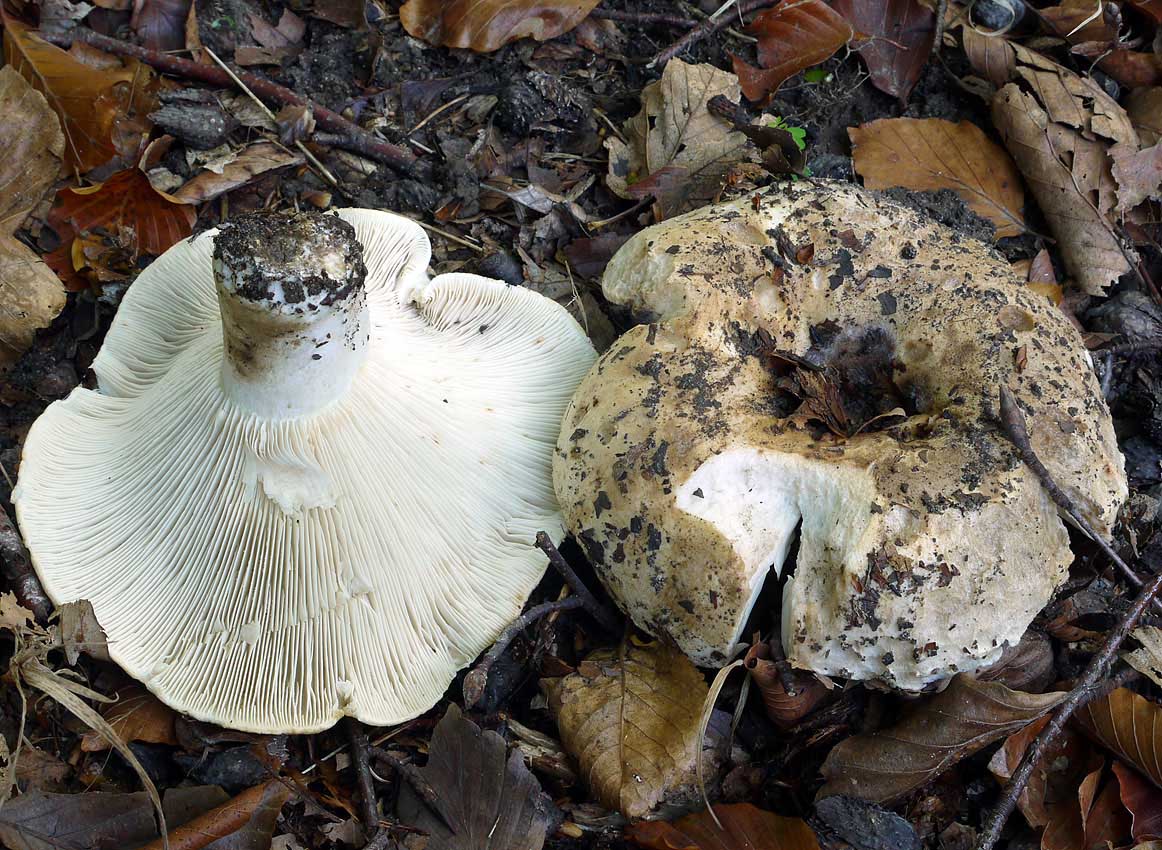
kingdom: Fungi
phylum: Basidiomycota
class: Agaricomycetes
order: Russulales
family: Russulaceae
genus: Russula
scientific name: Russula pallidospora
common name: cremesporet tragt-skørhat
